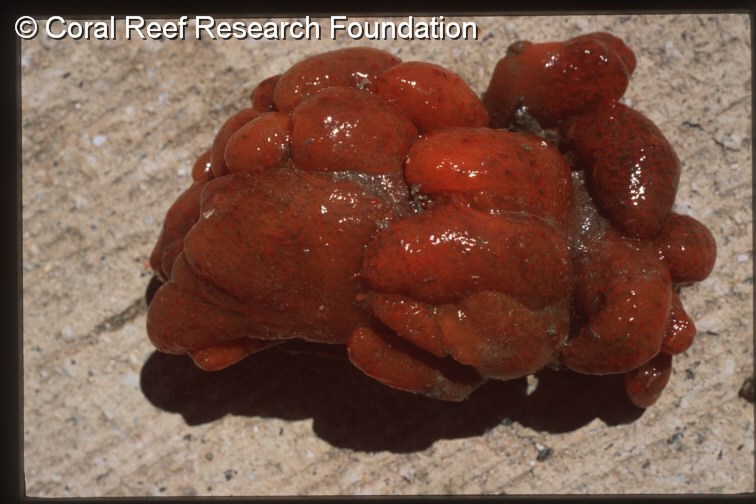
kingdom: Animalia
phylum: Chordata
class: Ascidiacea
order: Aplousobranchia
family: Pseudodistomidae
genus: Pseudodistoma
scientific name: Pseudodistoma
